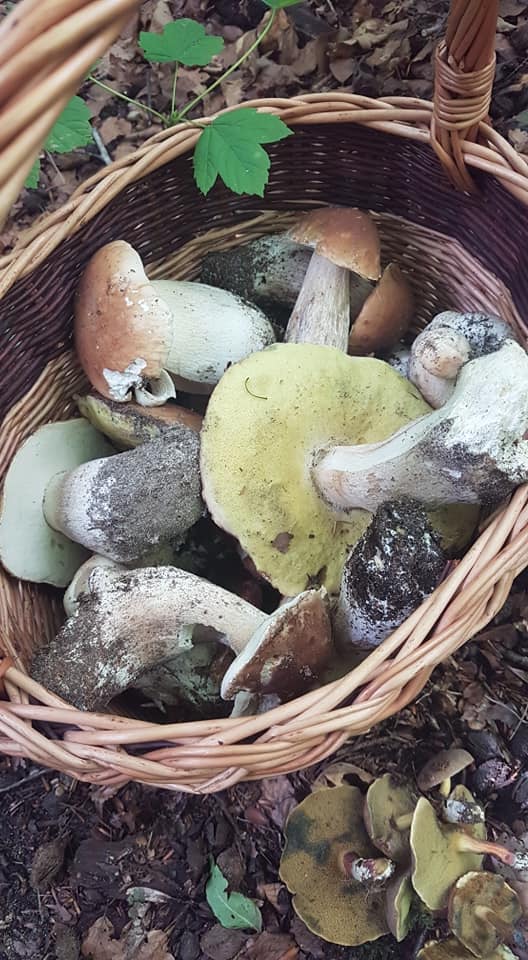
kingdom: Fungi
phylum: Basidiomycota
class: Agaricomycetes
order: Boletales
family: Boletaceae
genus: Boletus
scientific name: Boletus edulis
